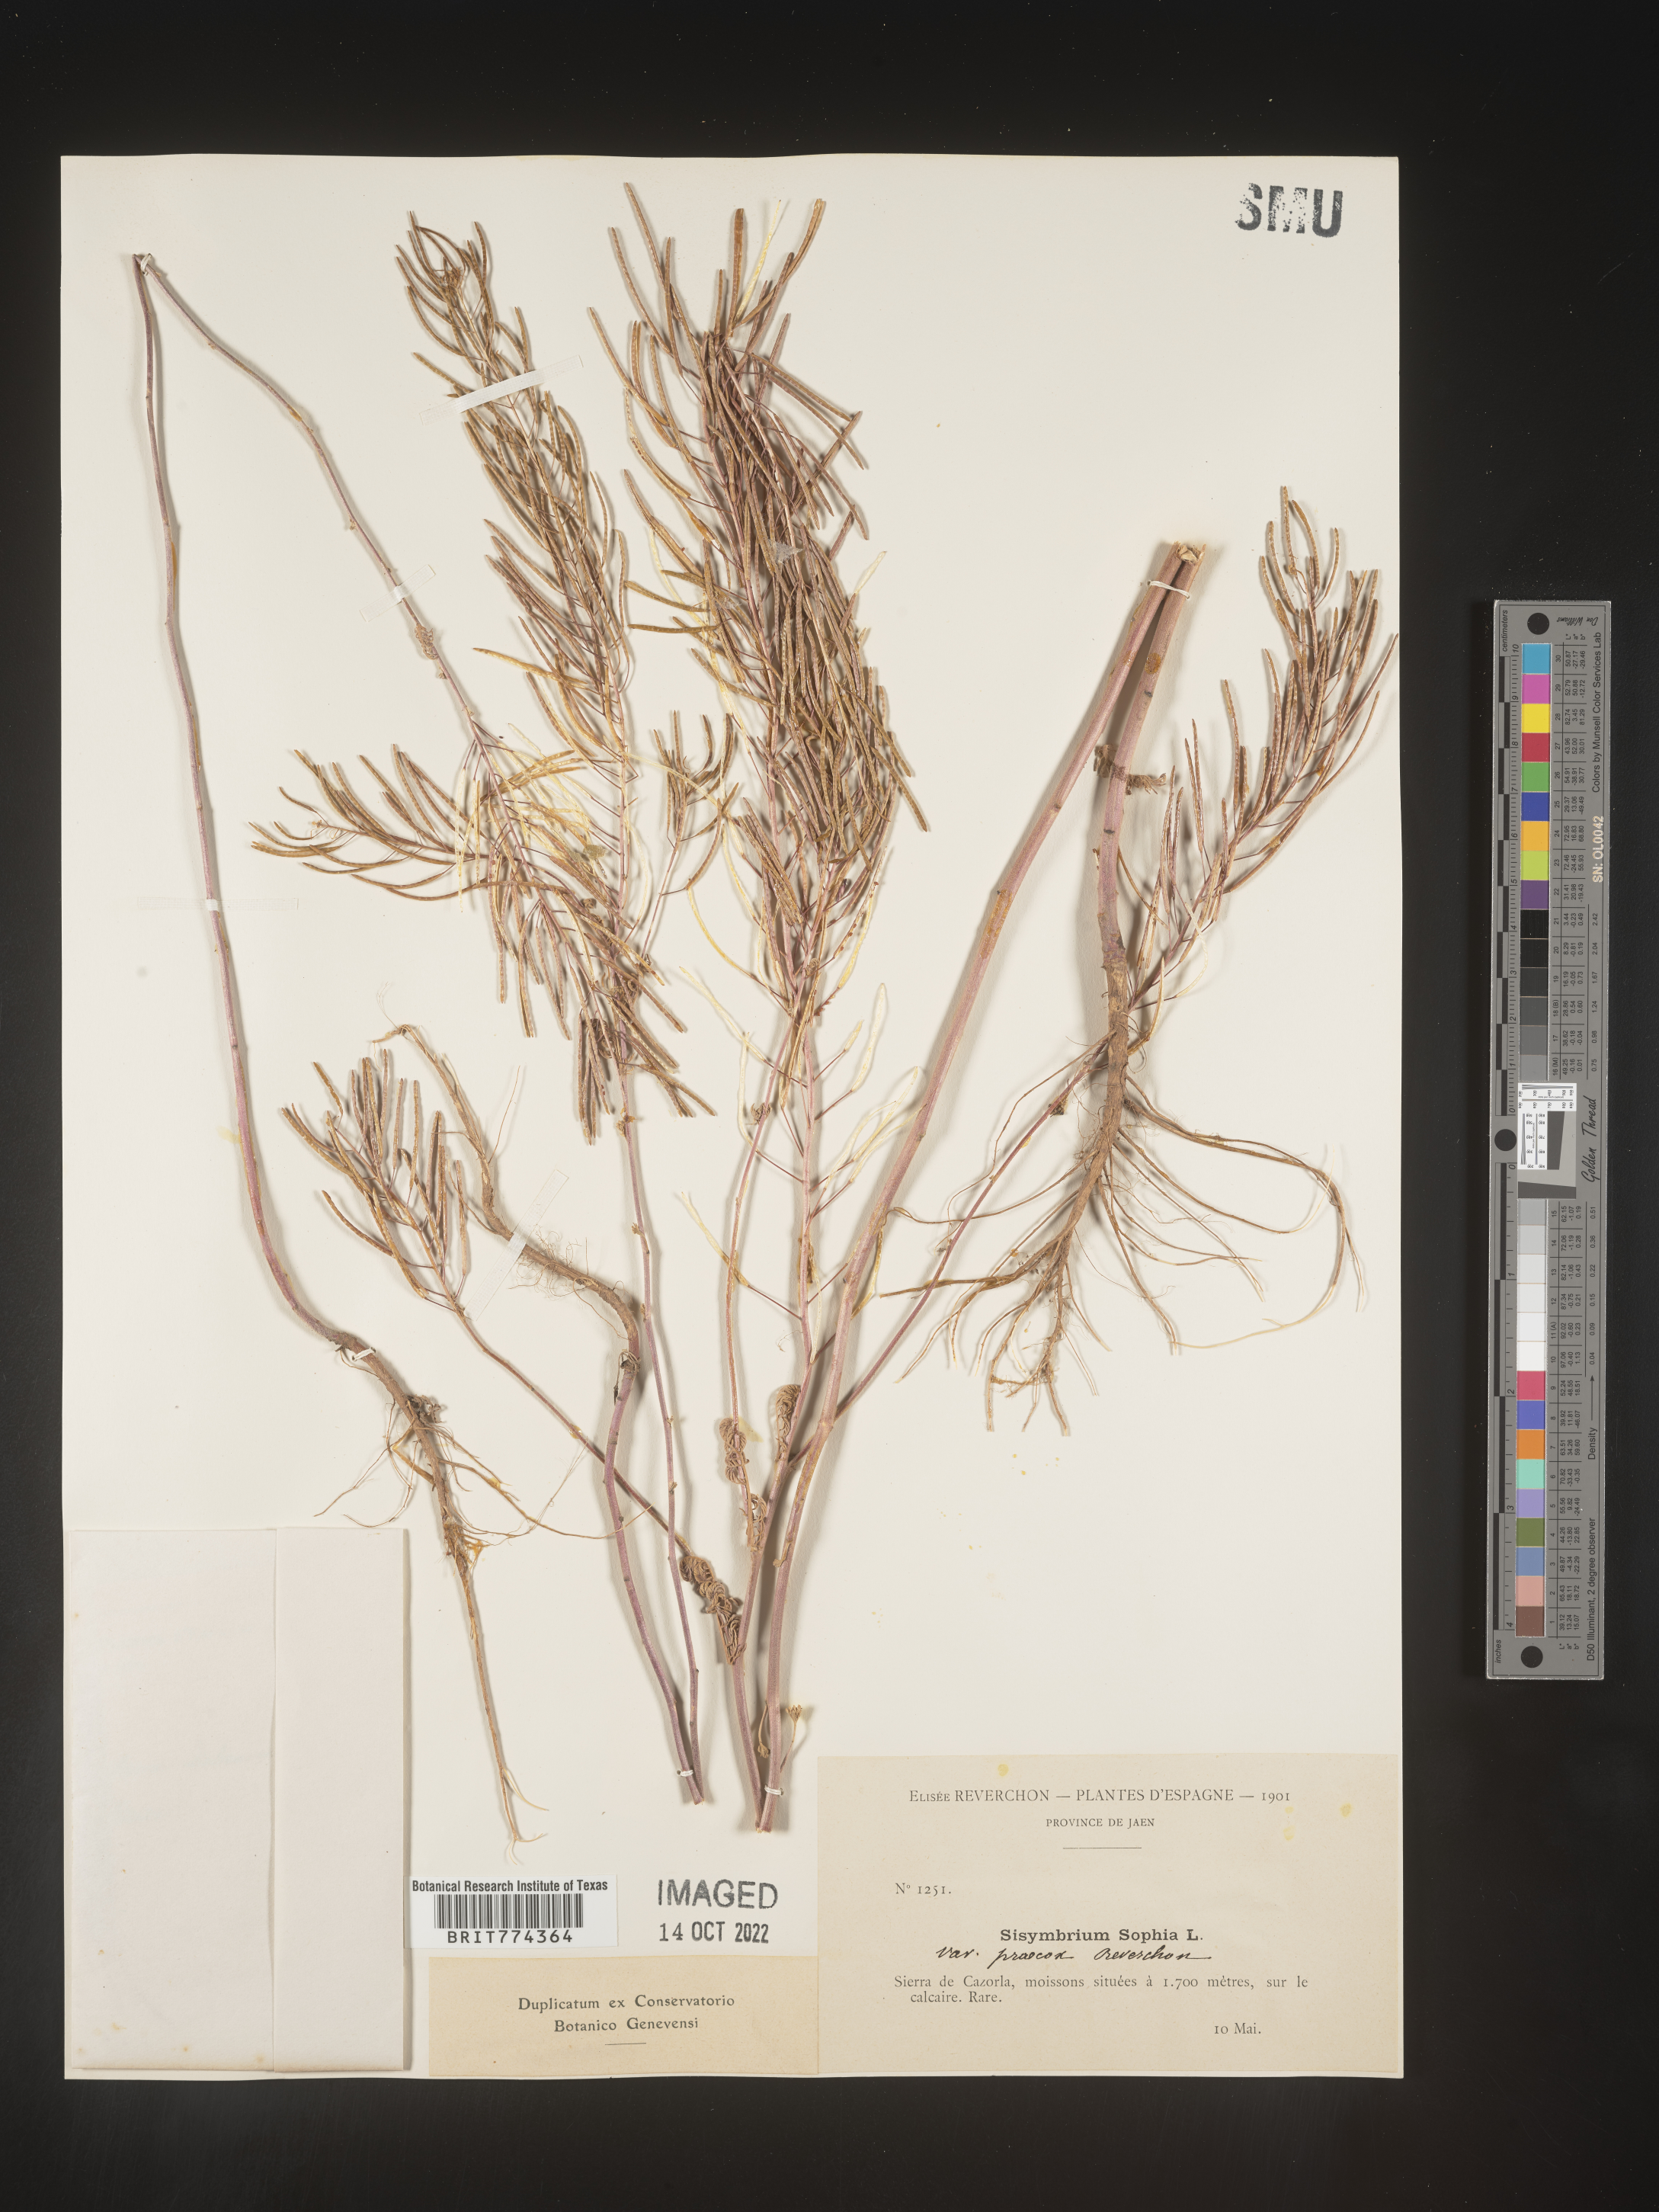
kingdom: Plantae
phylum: Tracheophyta
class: Magnoliopsida
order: Brassicales
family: Brassicaceae
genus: Descurainia
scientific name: Descurainia
